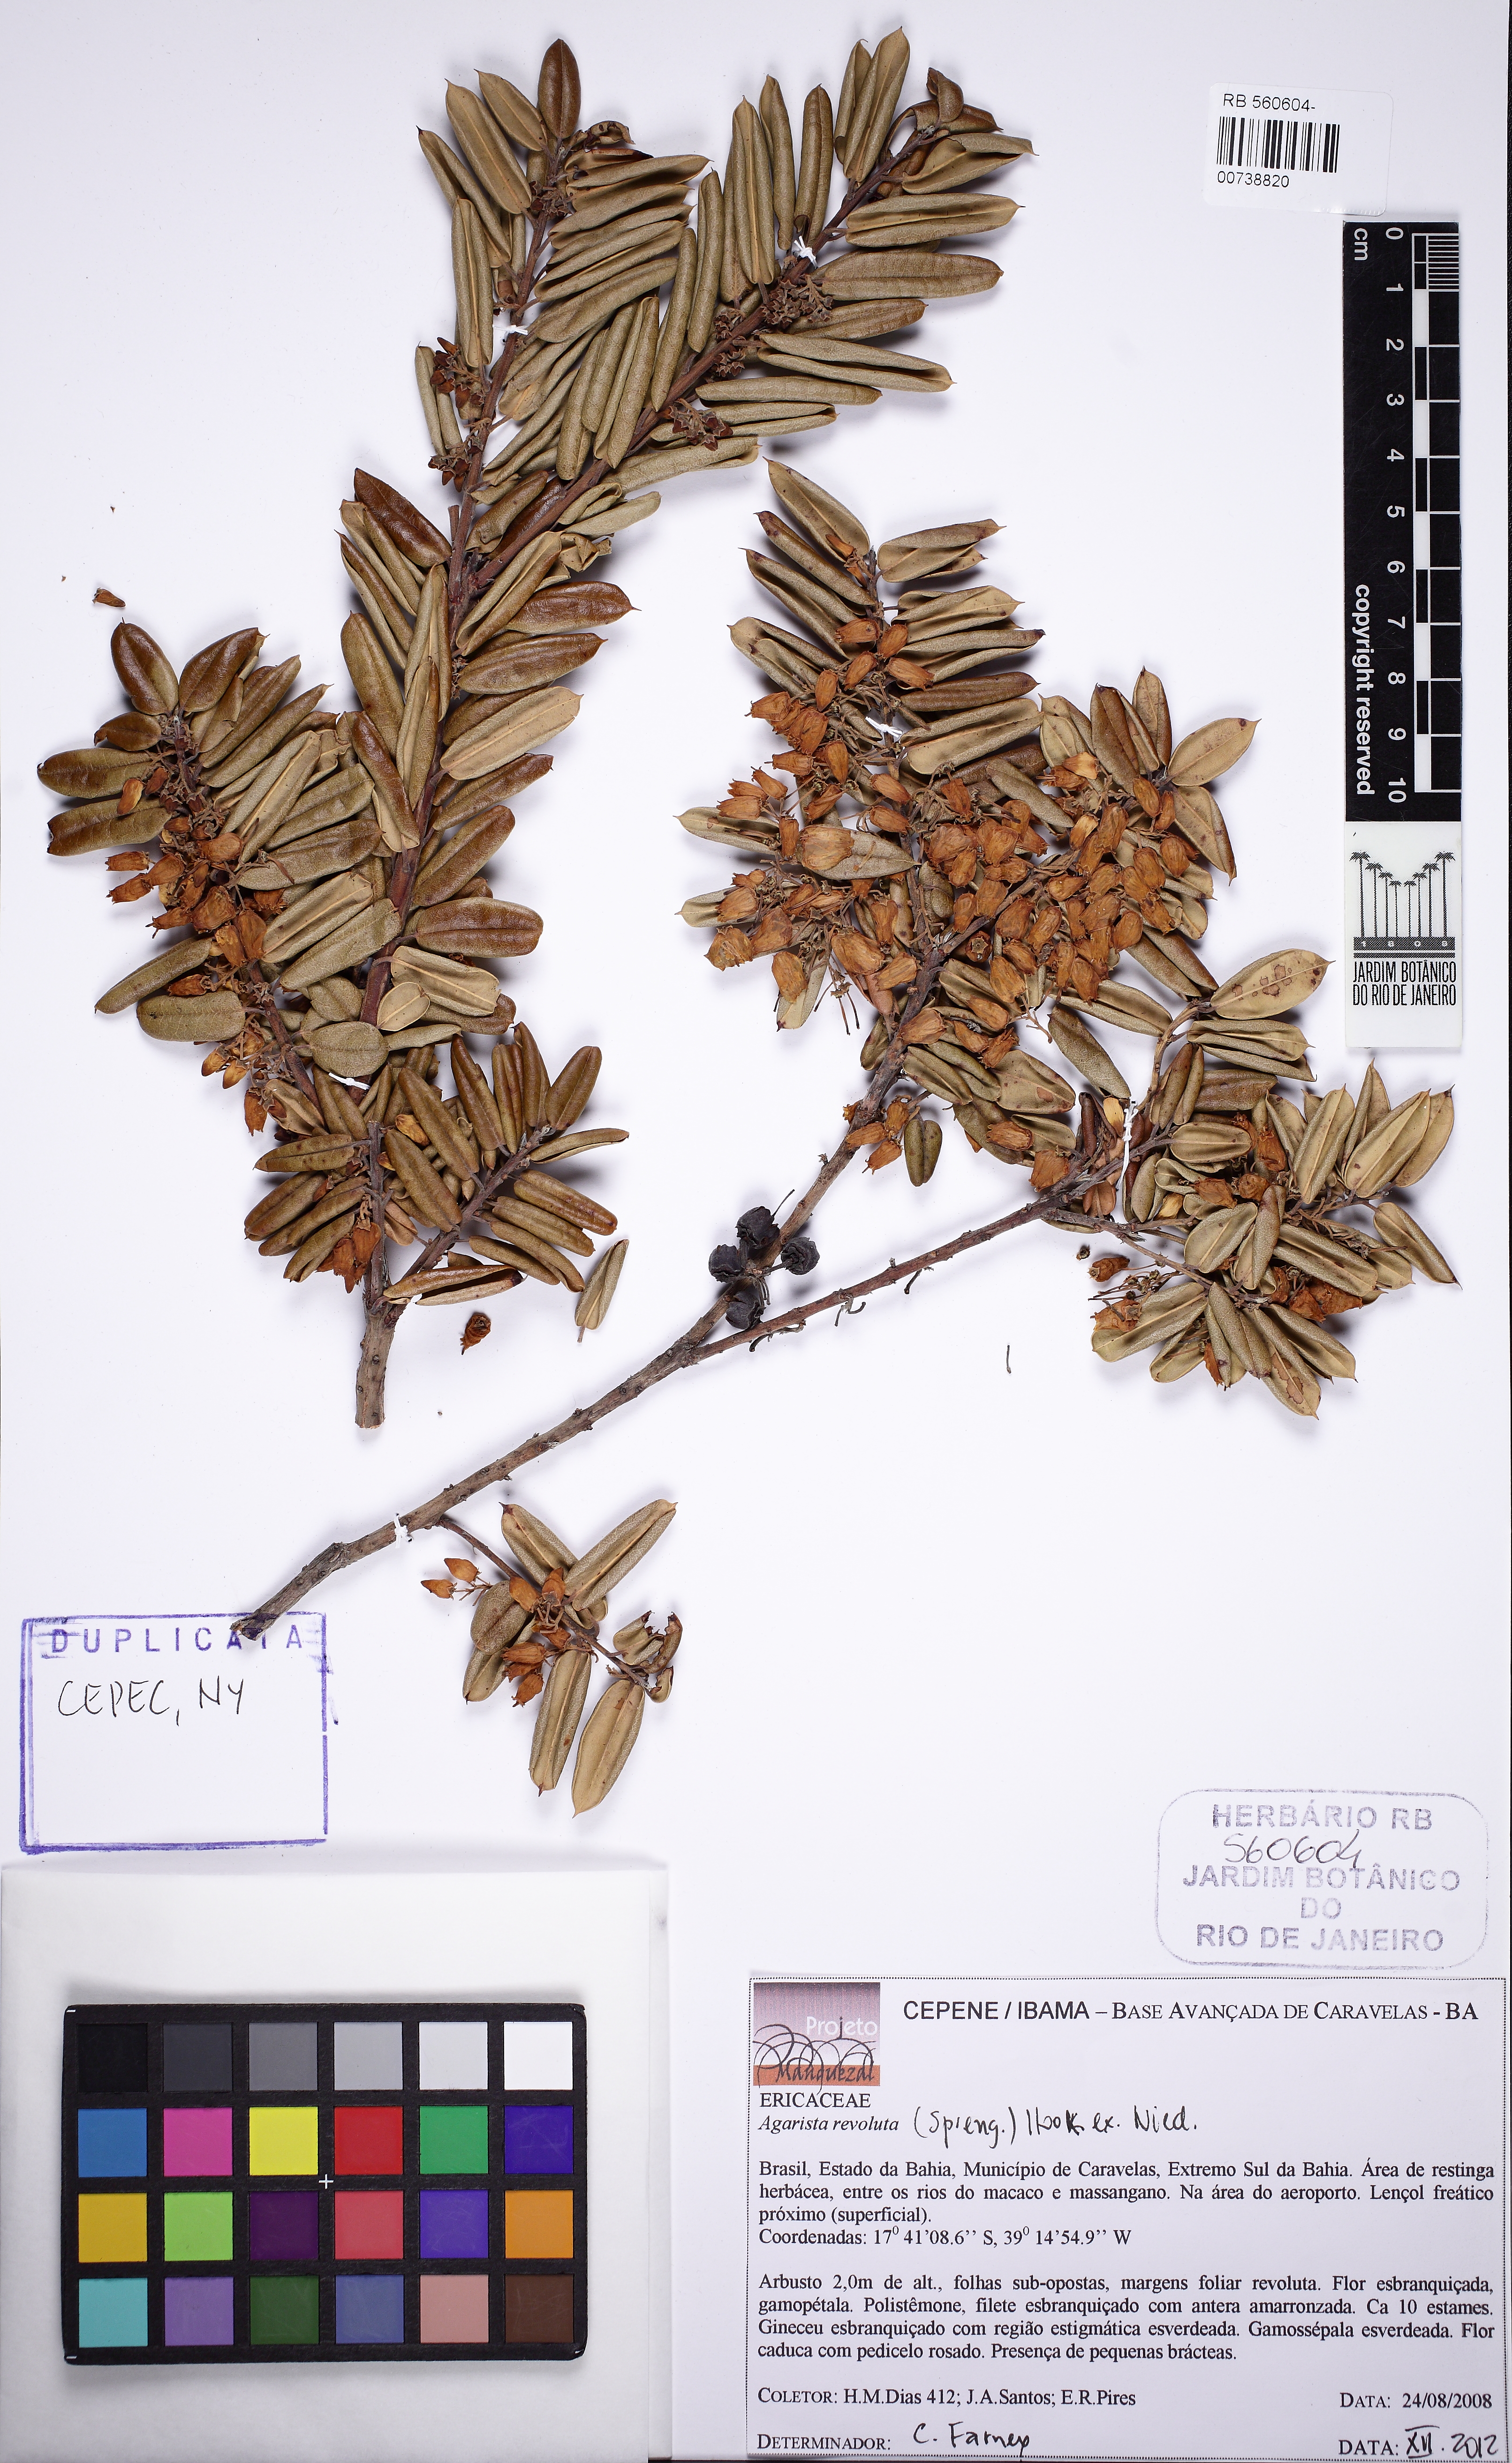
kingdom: Plantae
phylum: Tracheophyta
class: Magnoliopsida
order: Ericales
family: Ericaceae
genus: Agarista
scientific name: Agarista revoluta
